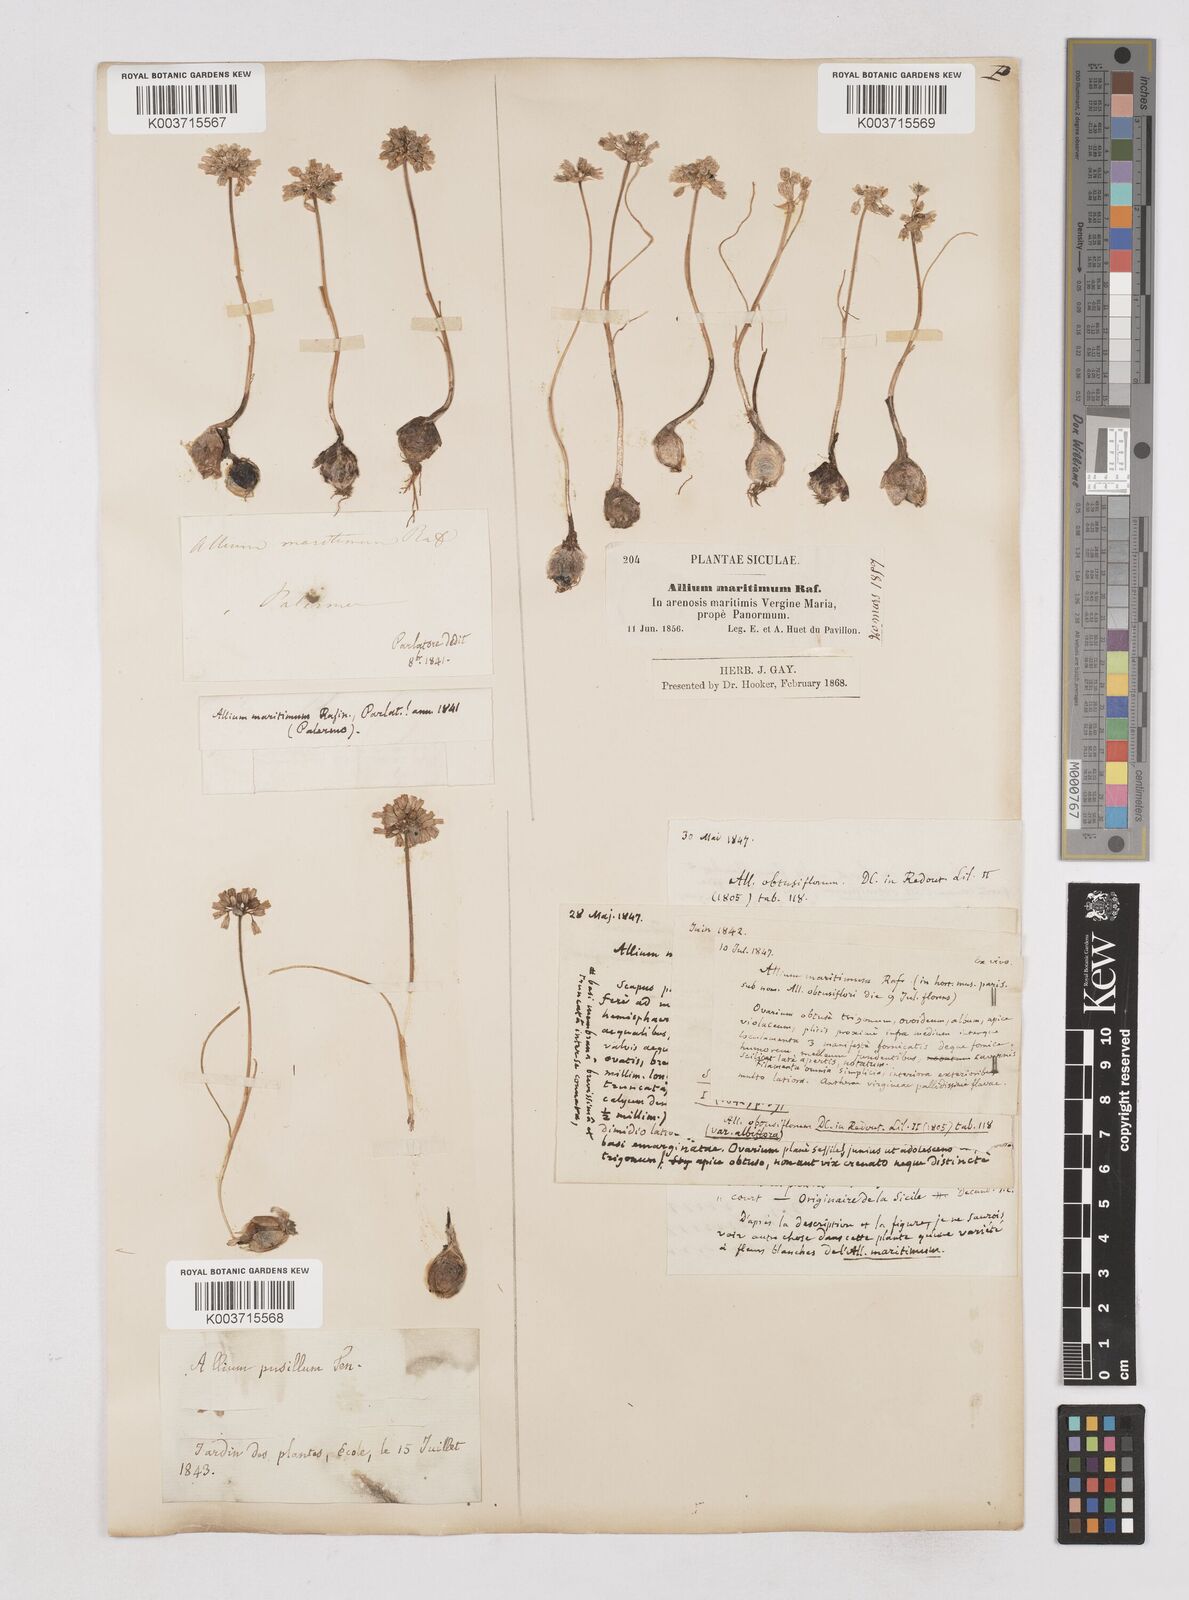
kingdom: Plantae
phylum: Tracheophyta
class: Liliopsida
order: Asparagales
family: Amaryllidaceae
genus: Allium
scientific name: Allium
